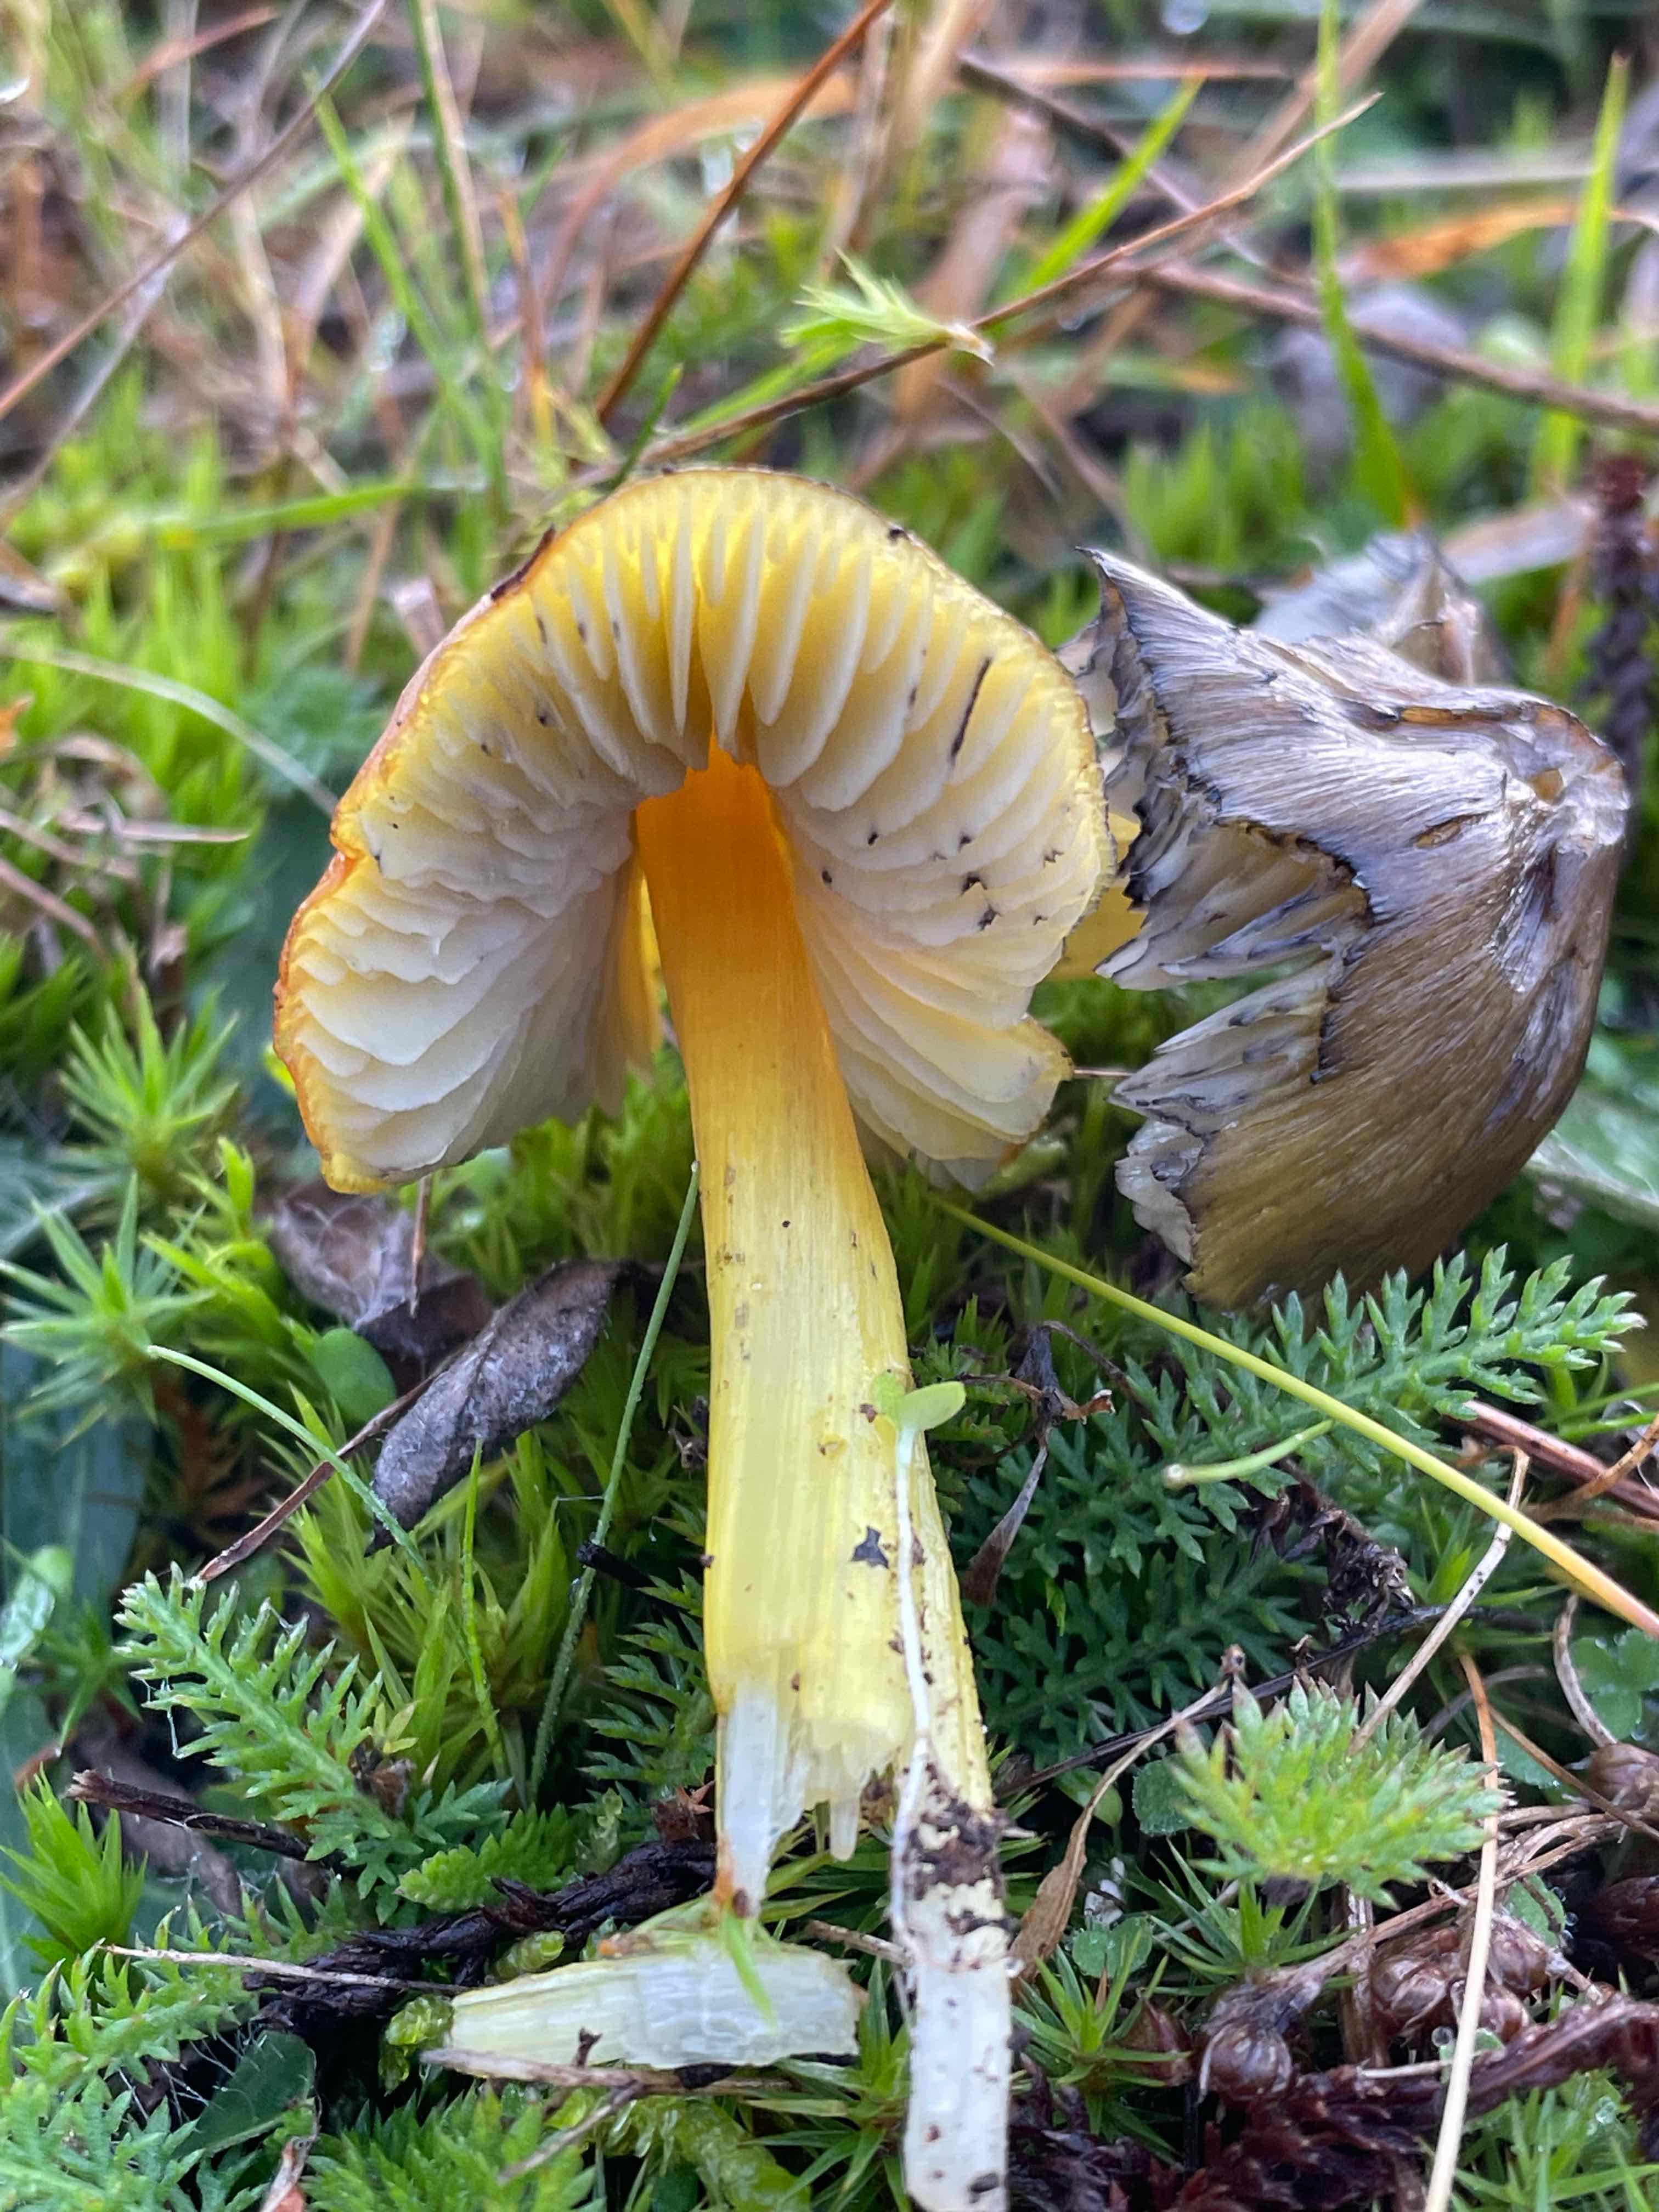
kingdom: Fungi
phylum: Basidiomycota
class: Agaricomycetes
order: Agaricales
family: Hygrophoraceae
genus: Hygrocybe
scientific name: Hygrocybe conica
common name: kegle-vokshat
